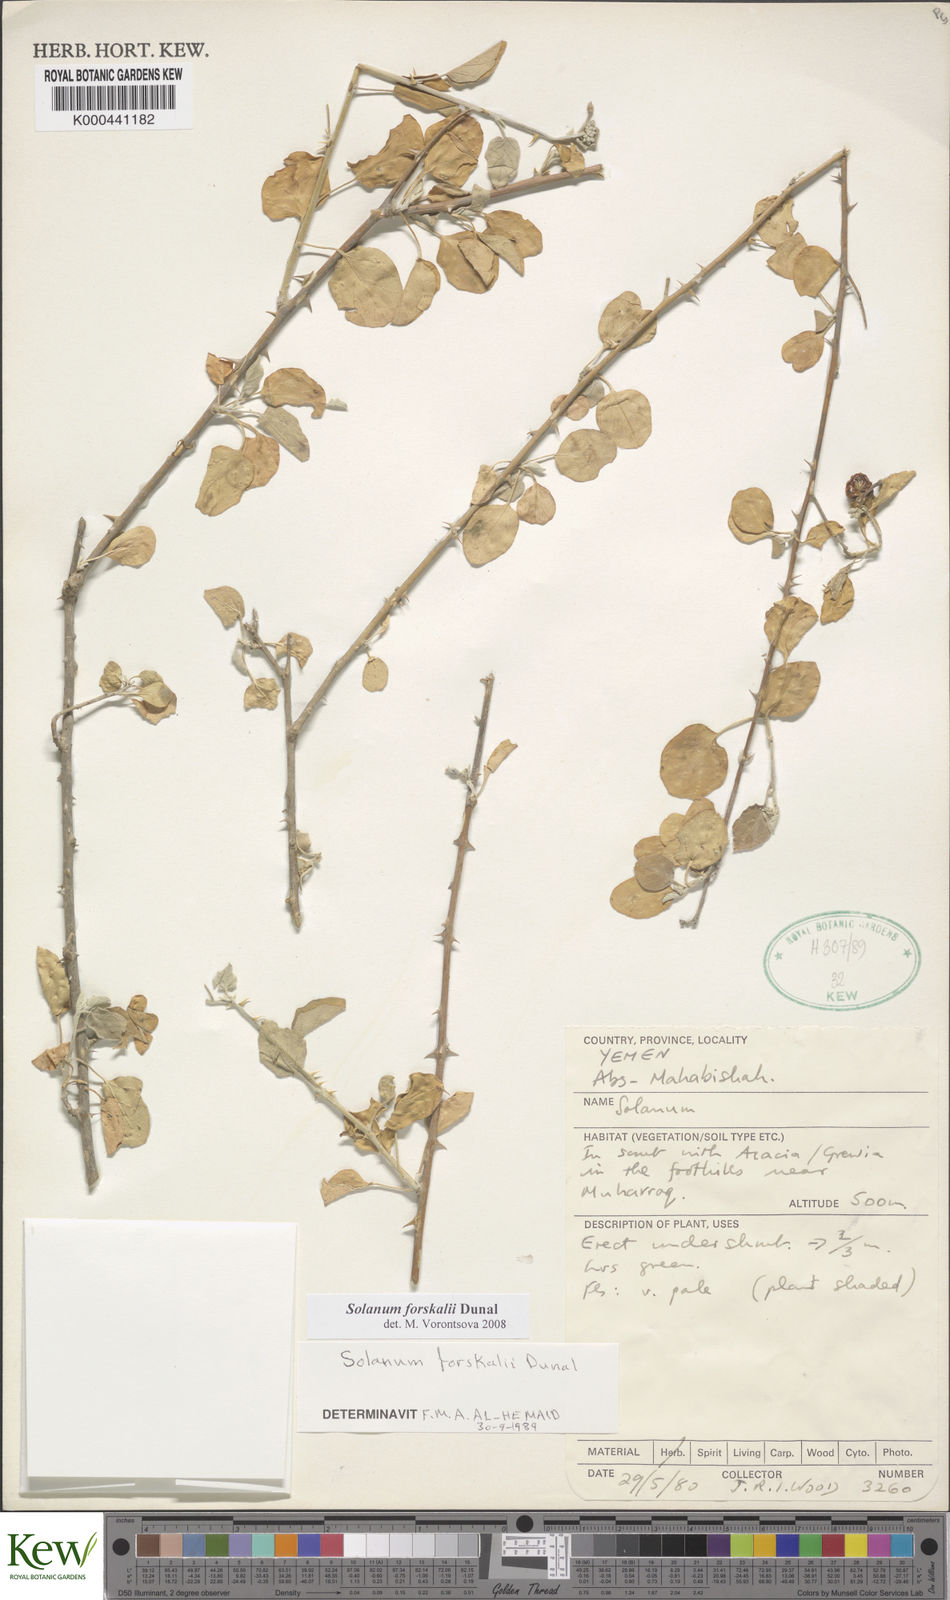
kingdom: Plantae
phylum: Tracheophyta
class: Magnoliopsida
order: Solanales
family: Solanaceae
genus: Solanum
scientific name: Solanum
